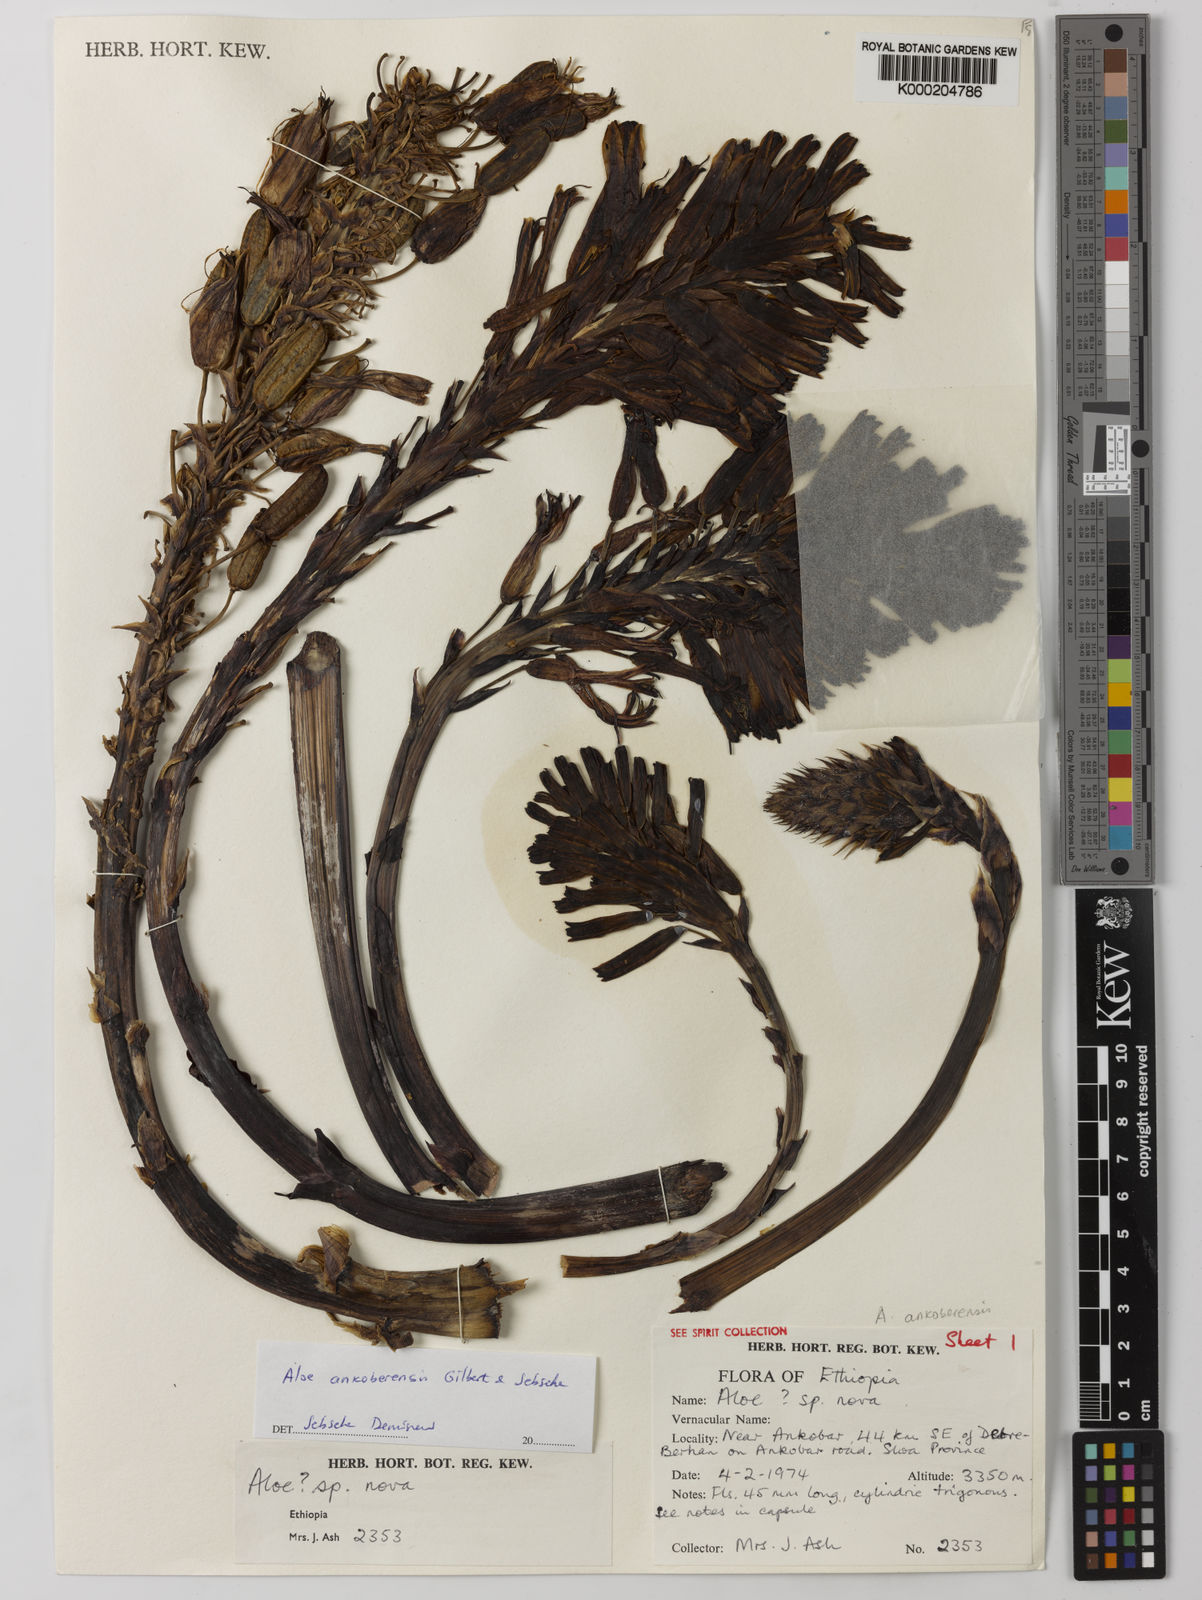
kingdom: Plantae
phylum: Tracheophyta
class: Liliopsida
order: Asparagales
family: Asphodelaceae
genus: Aloe
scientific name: Aloe ankoberensis
